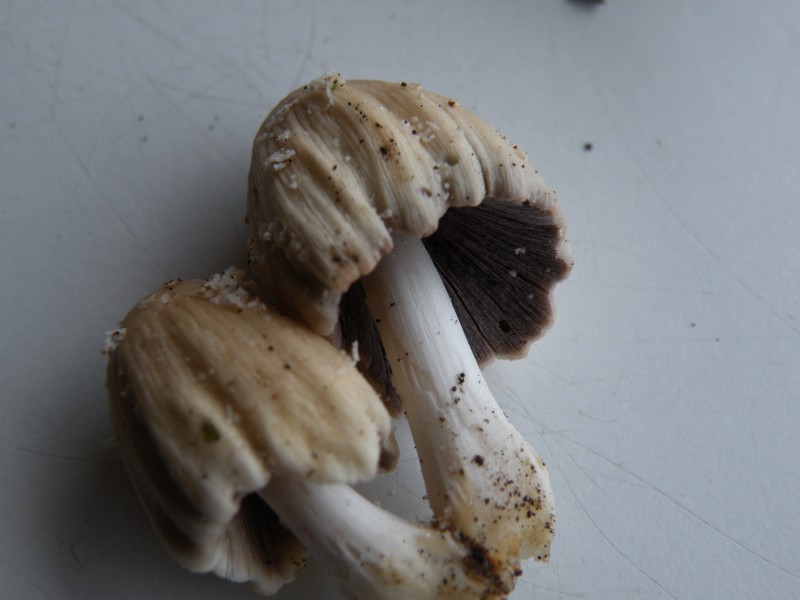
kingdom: Fungi
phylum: Basidiomycota
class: Agaricomycetes
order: Agaricales
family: Psathyrellaceae
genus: Coprinellus
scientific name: Coprinellus domesticus
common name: hus-blækhat
